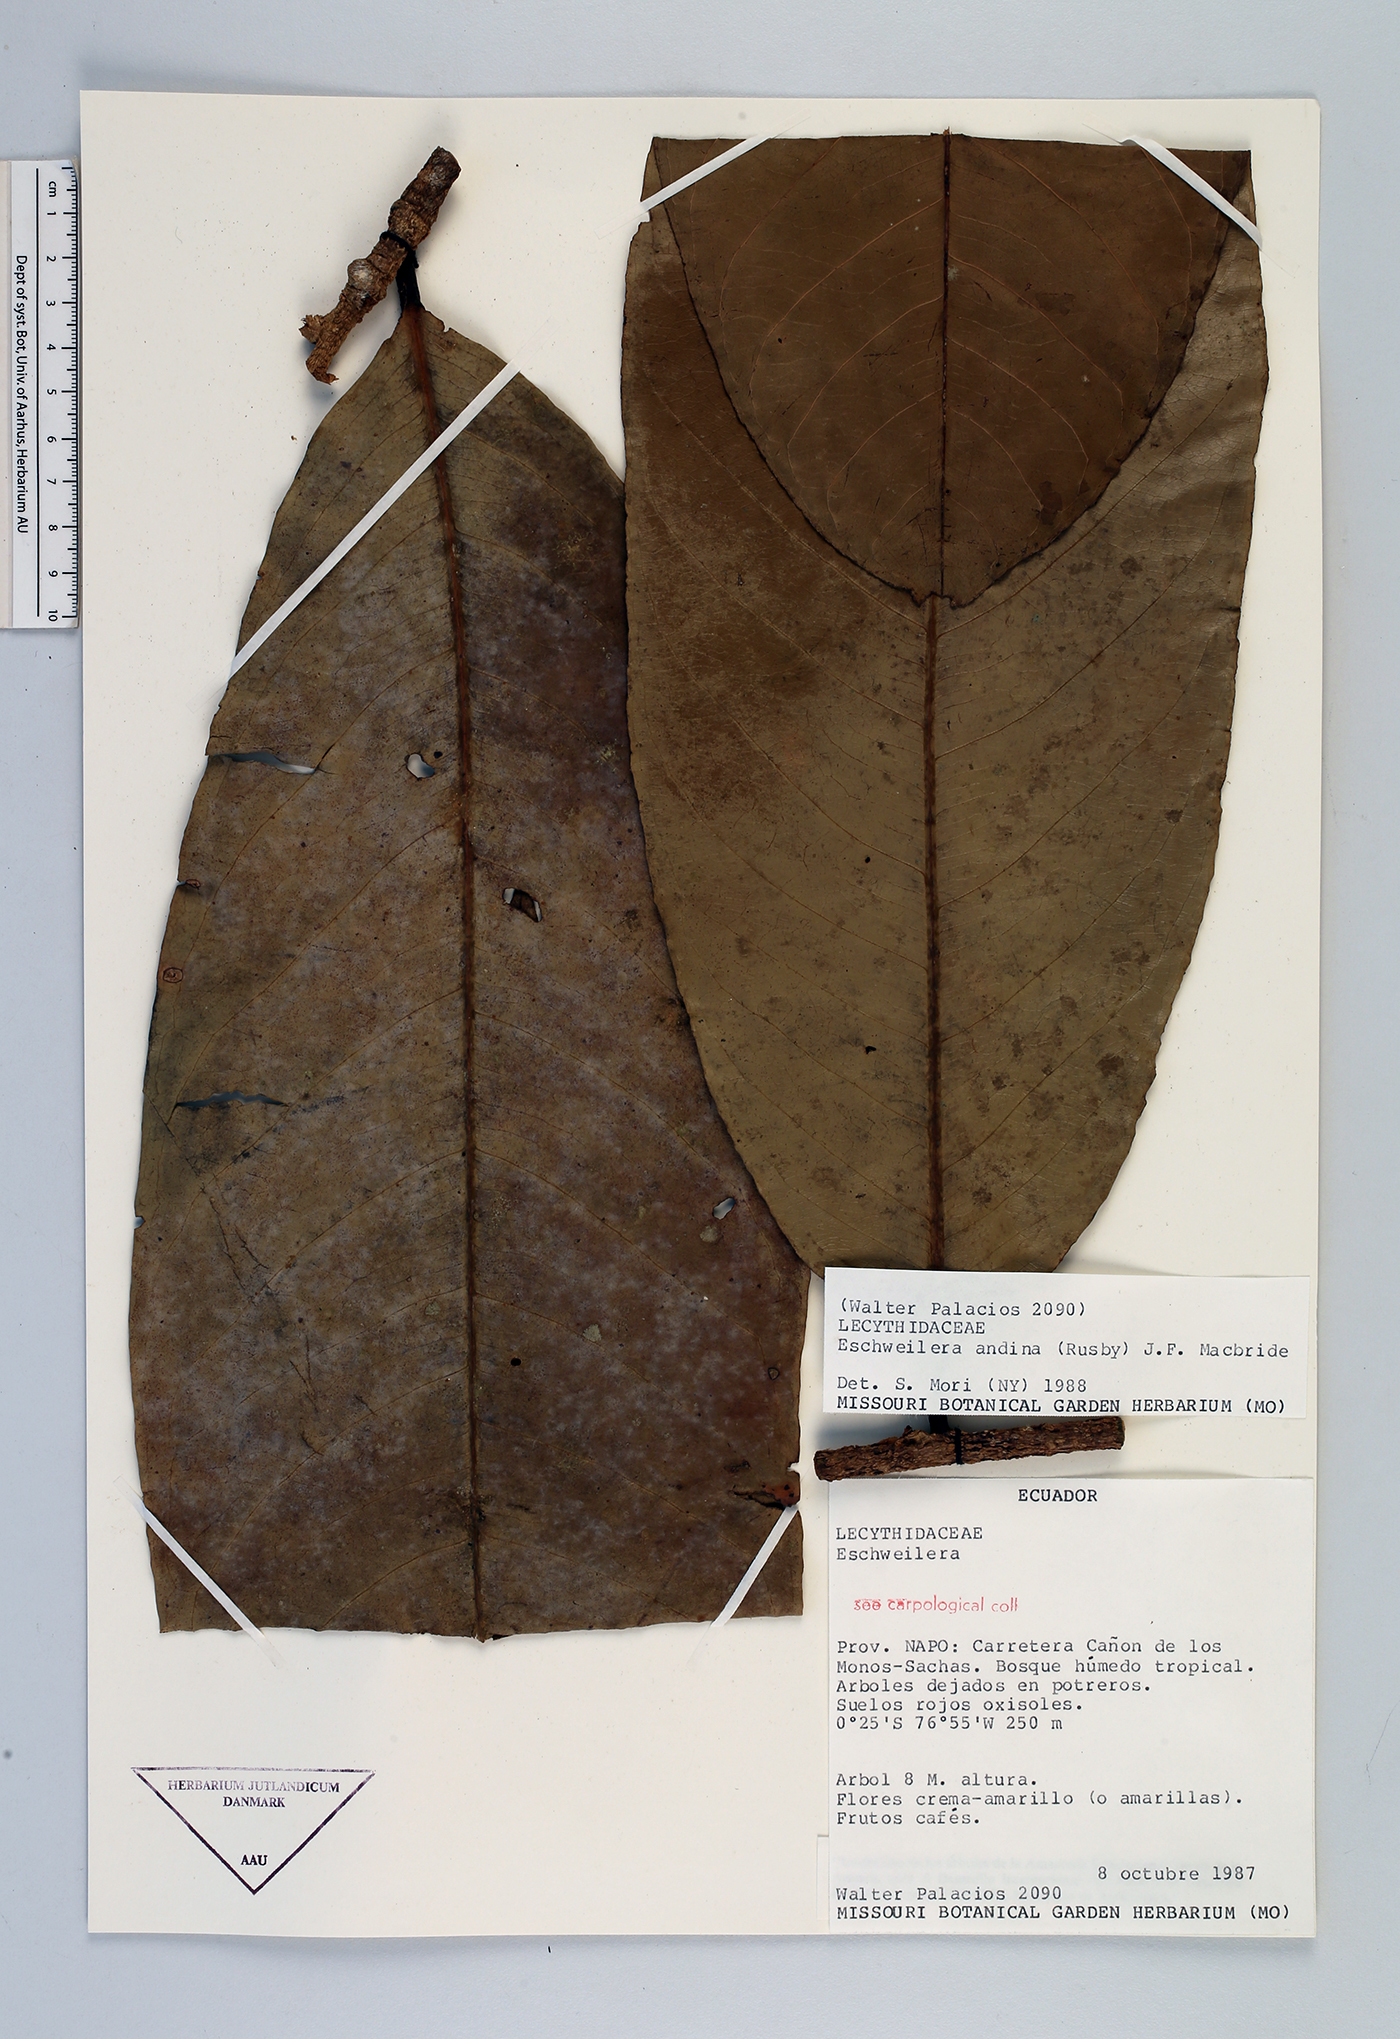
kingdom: Plantae
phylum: Tracheophyta
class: Magnoliopsida
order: Ericales
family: Lecythidaceae
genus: Eschweilera
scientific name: Eschweilera andina
